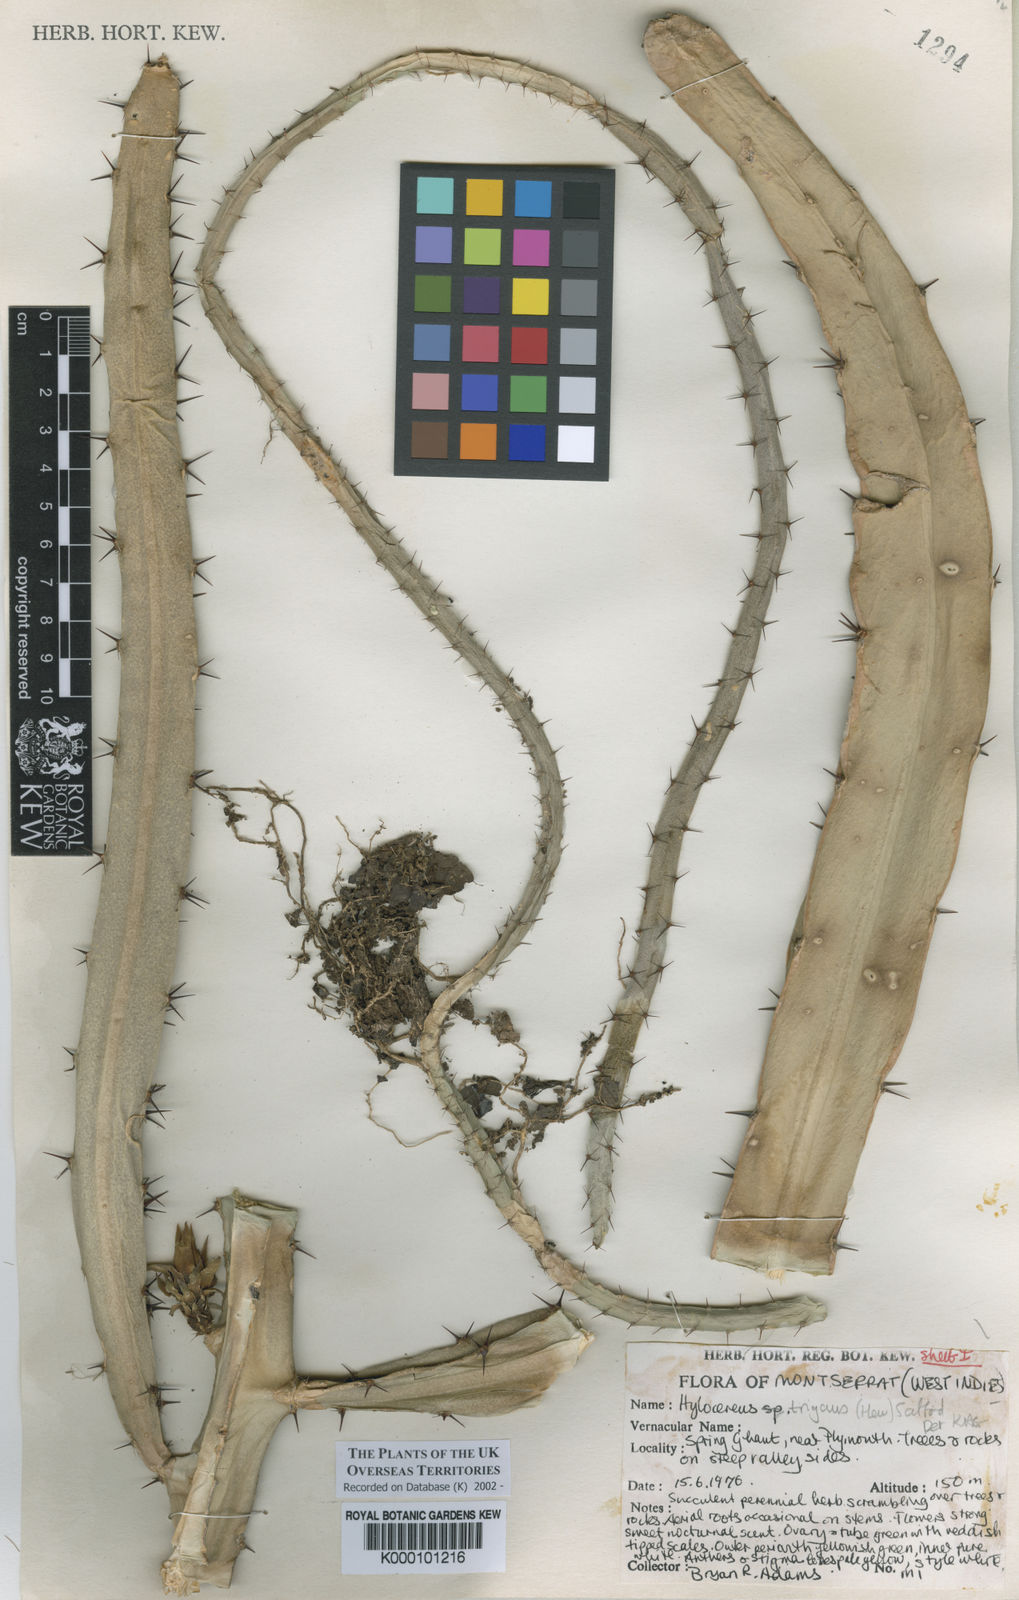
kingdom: Plantae
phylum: Tracheophyta
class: Magnoliopsida
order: Caryophyllales
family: Cactaceae
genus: Selenicereus
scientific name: Selenicereus triangularis
